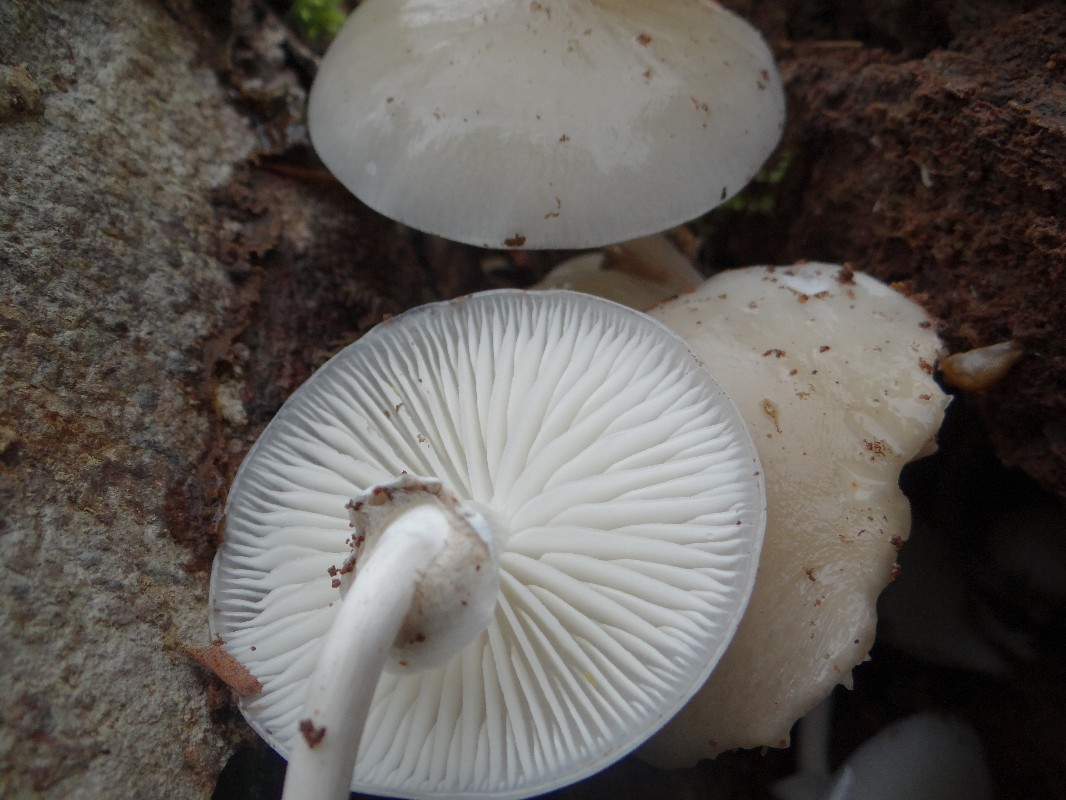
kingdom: Fungi
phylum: Basidiomycota
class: Agaricomycetes
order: Agaricales
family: Physalacriaceae
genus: Mucidula
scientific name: Mucidula mucida
